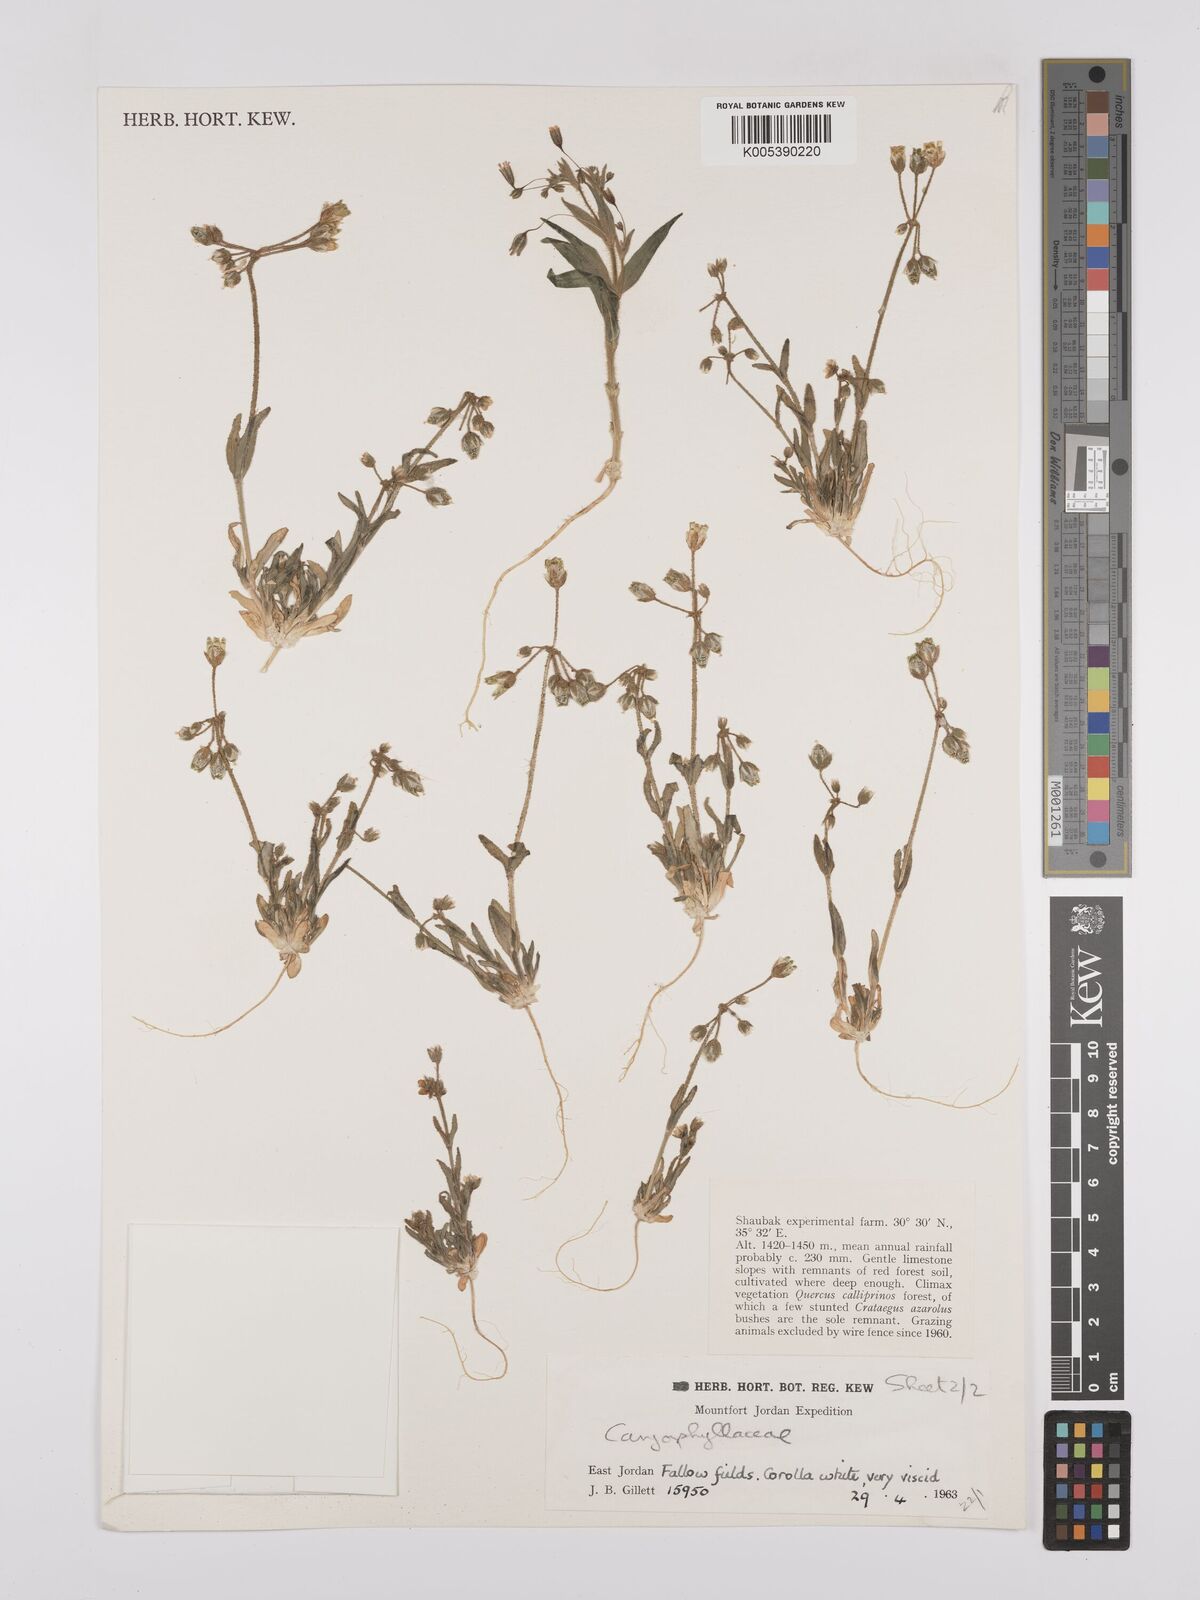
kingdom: Plantae
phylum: Tracheophyta
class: Magnoliopsida
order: Caryophyllales
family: Caryophyllaceae
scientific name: Caryophyllaceae
